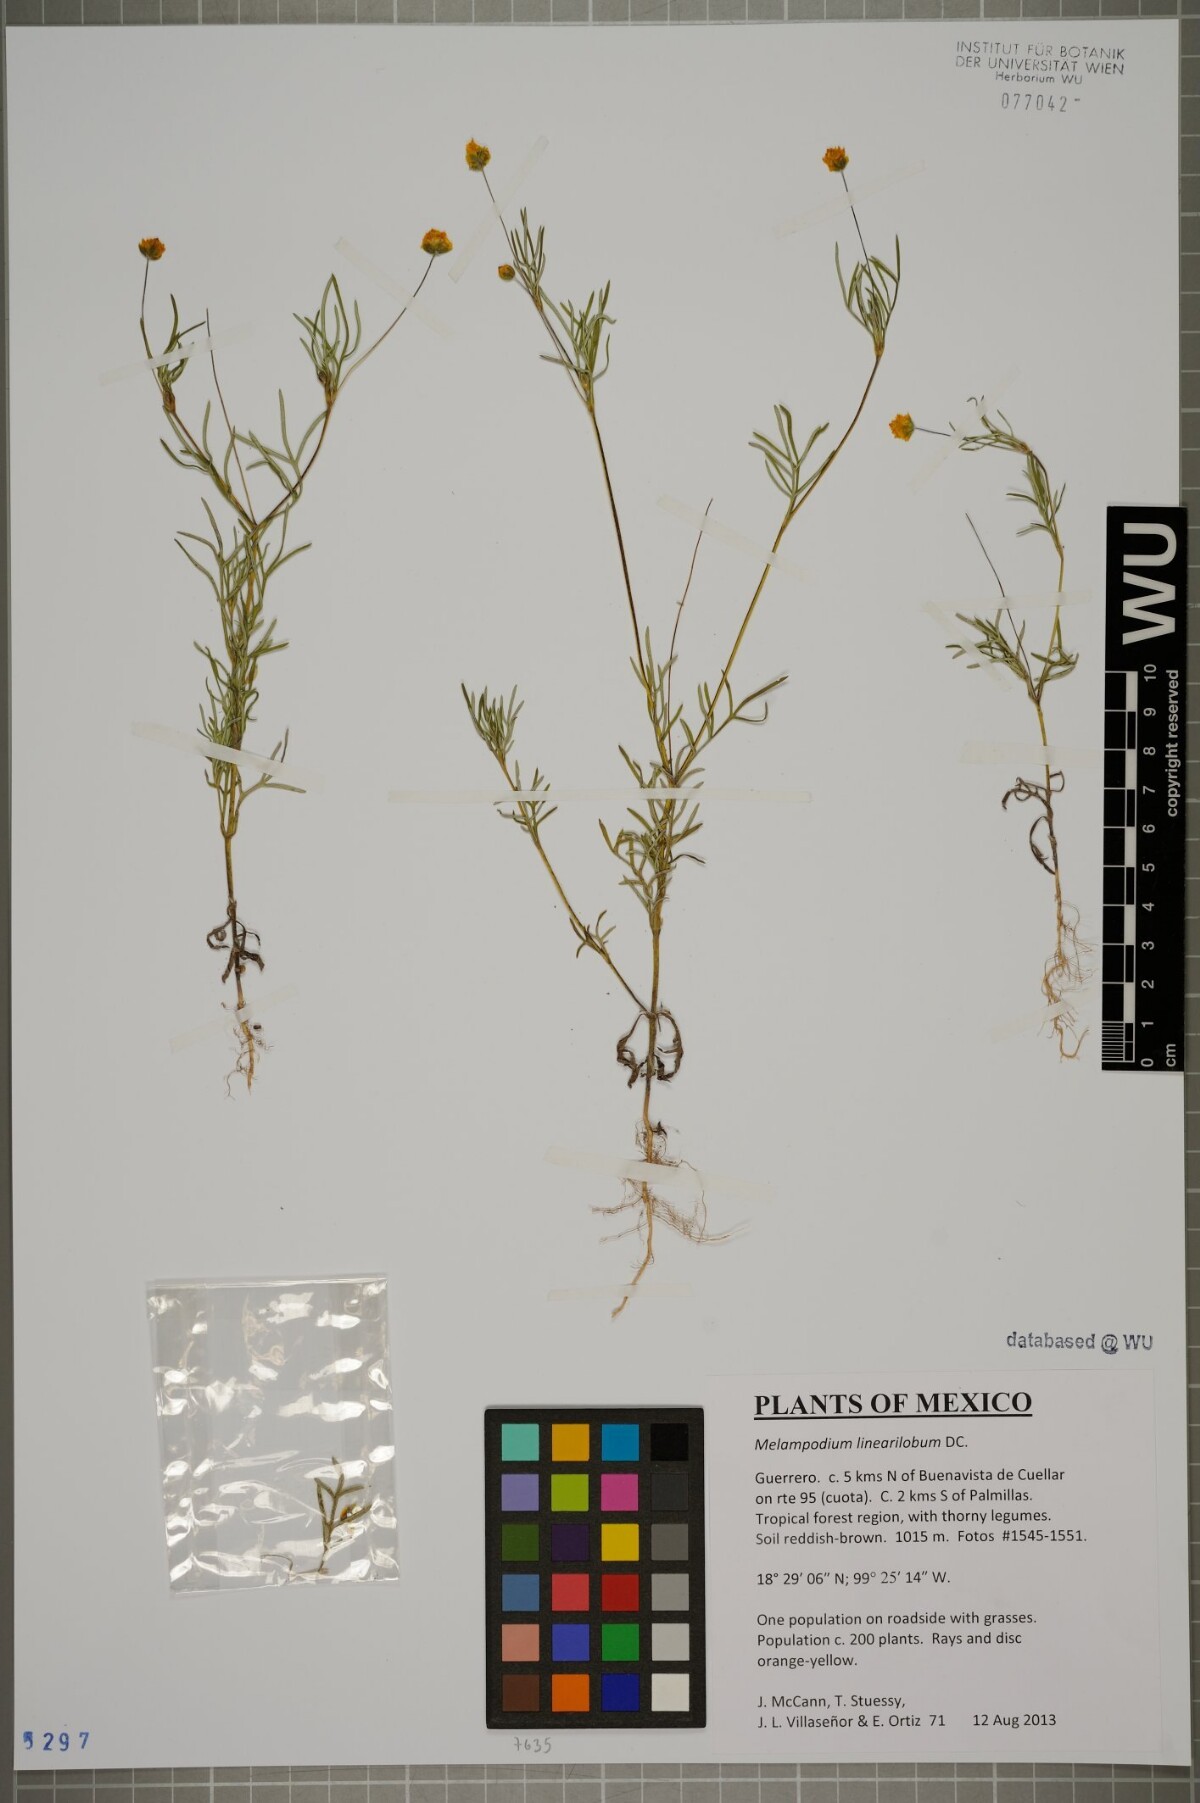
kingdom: Plantae
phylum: Tracheophyta
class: Magnoliopsida
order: Asterales
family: Asteraceae
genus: Melampodium
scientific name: Melampodium linearilobum
